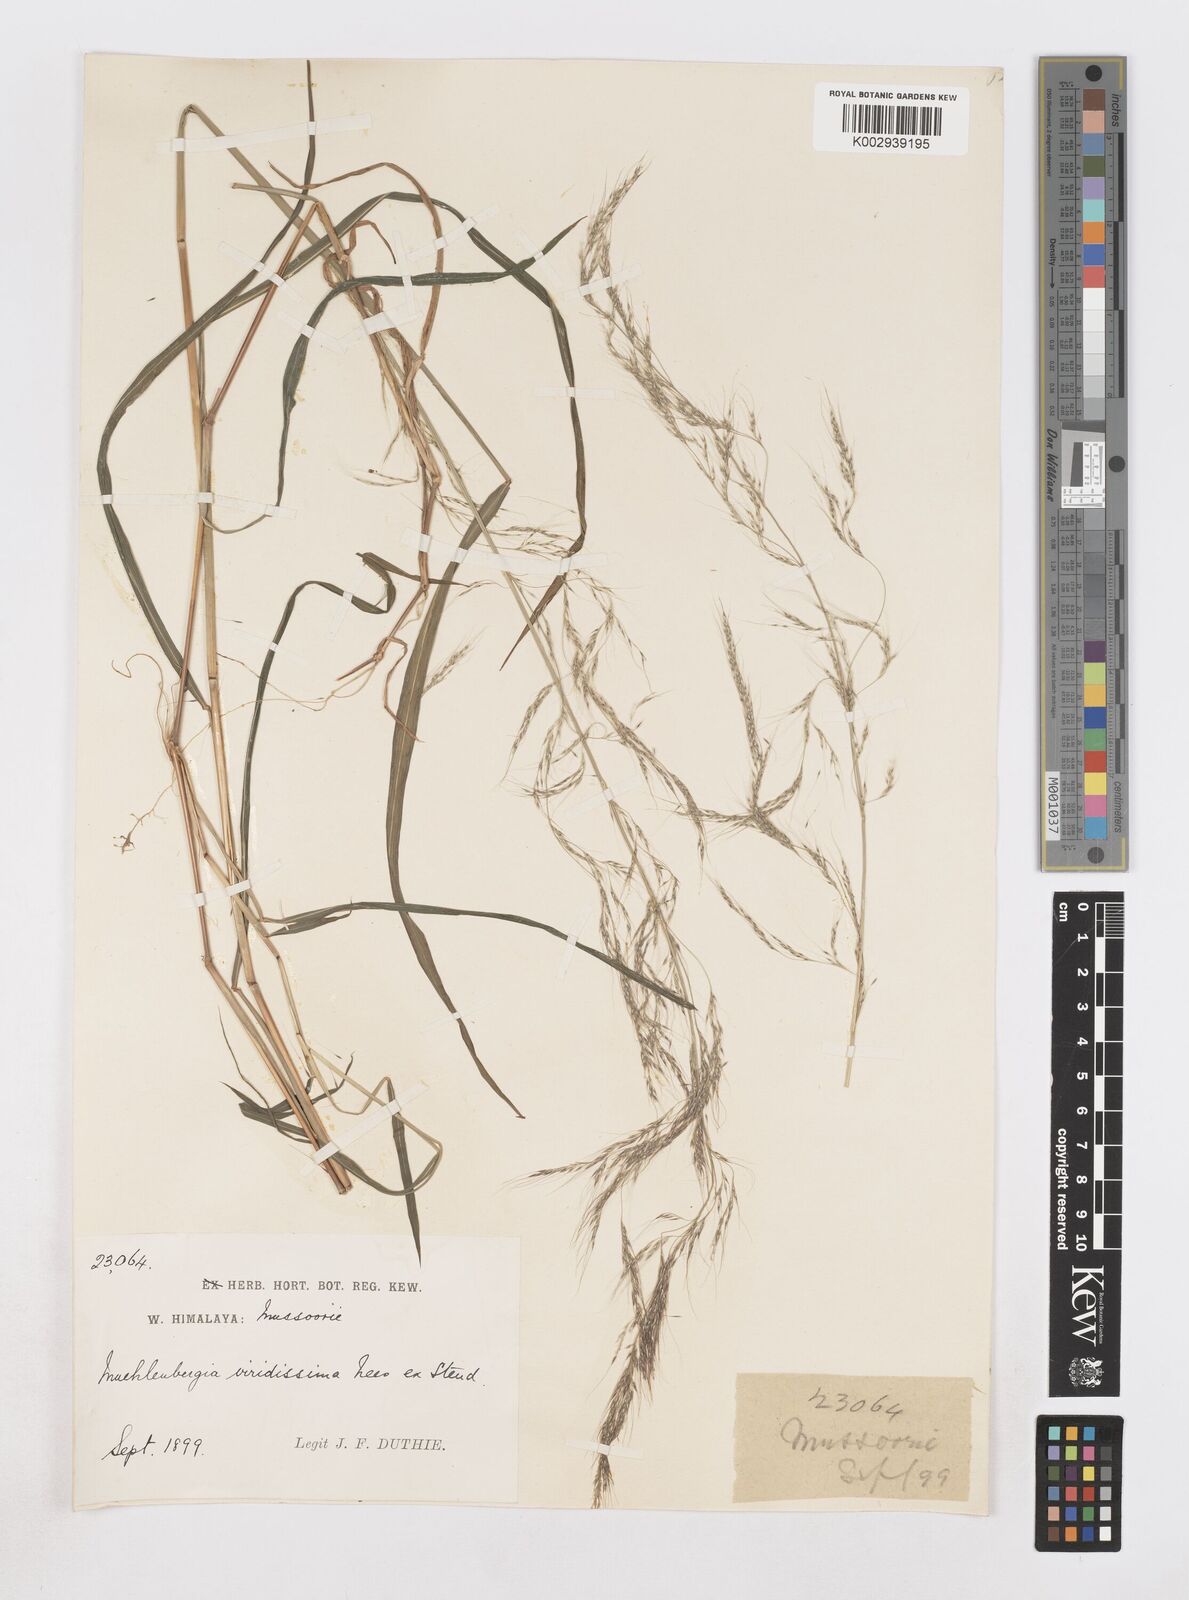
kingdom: Plantae
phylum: Tracheophyta
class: Liliopsida
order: Poales
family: Poaceae
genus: Muhlenbergia
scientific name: Muhlenbergia huegelii
